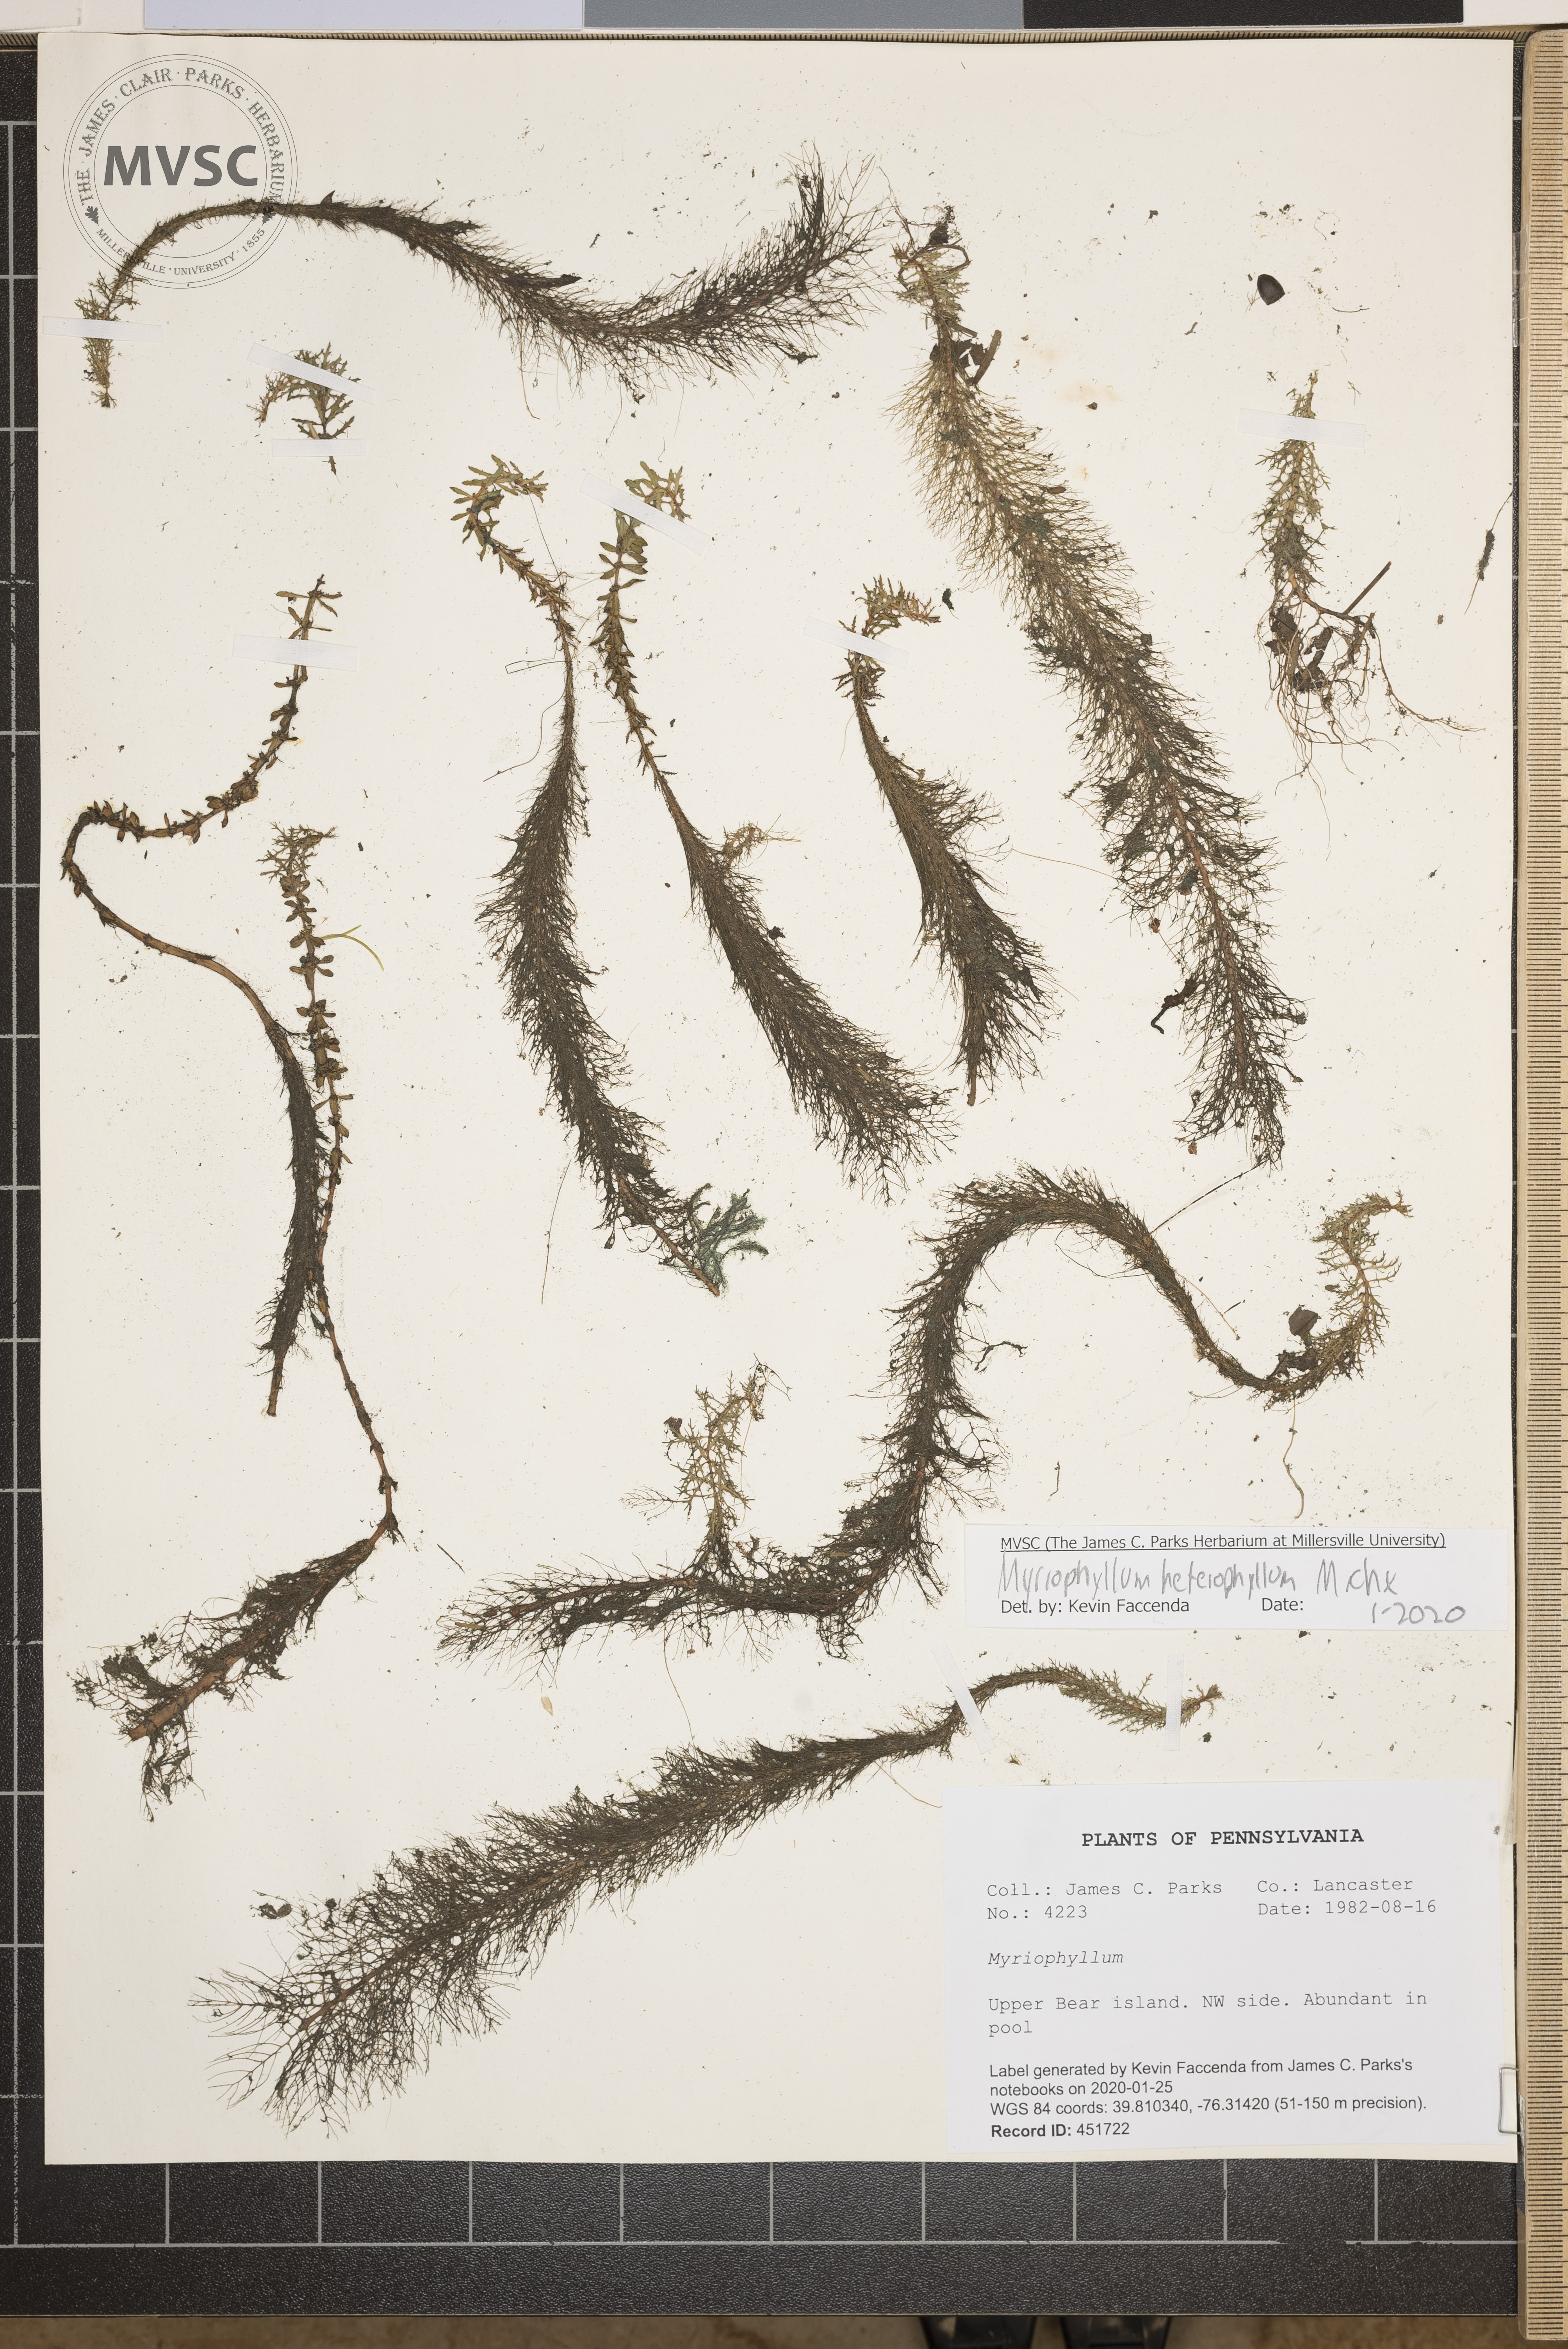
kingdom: Plantae
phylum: Tracheophyta
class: Magnoliopsida
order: Saxifragales
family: Haloragaceae
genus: Myriophyllum
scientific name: Myriophyllum heterophyllum
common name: Variable watermilfoil
